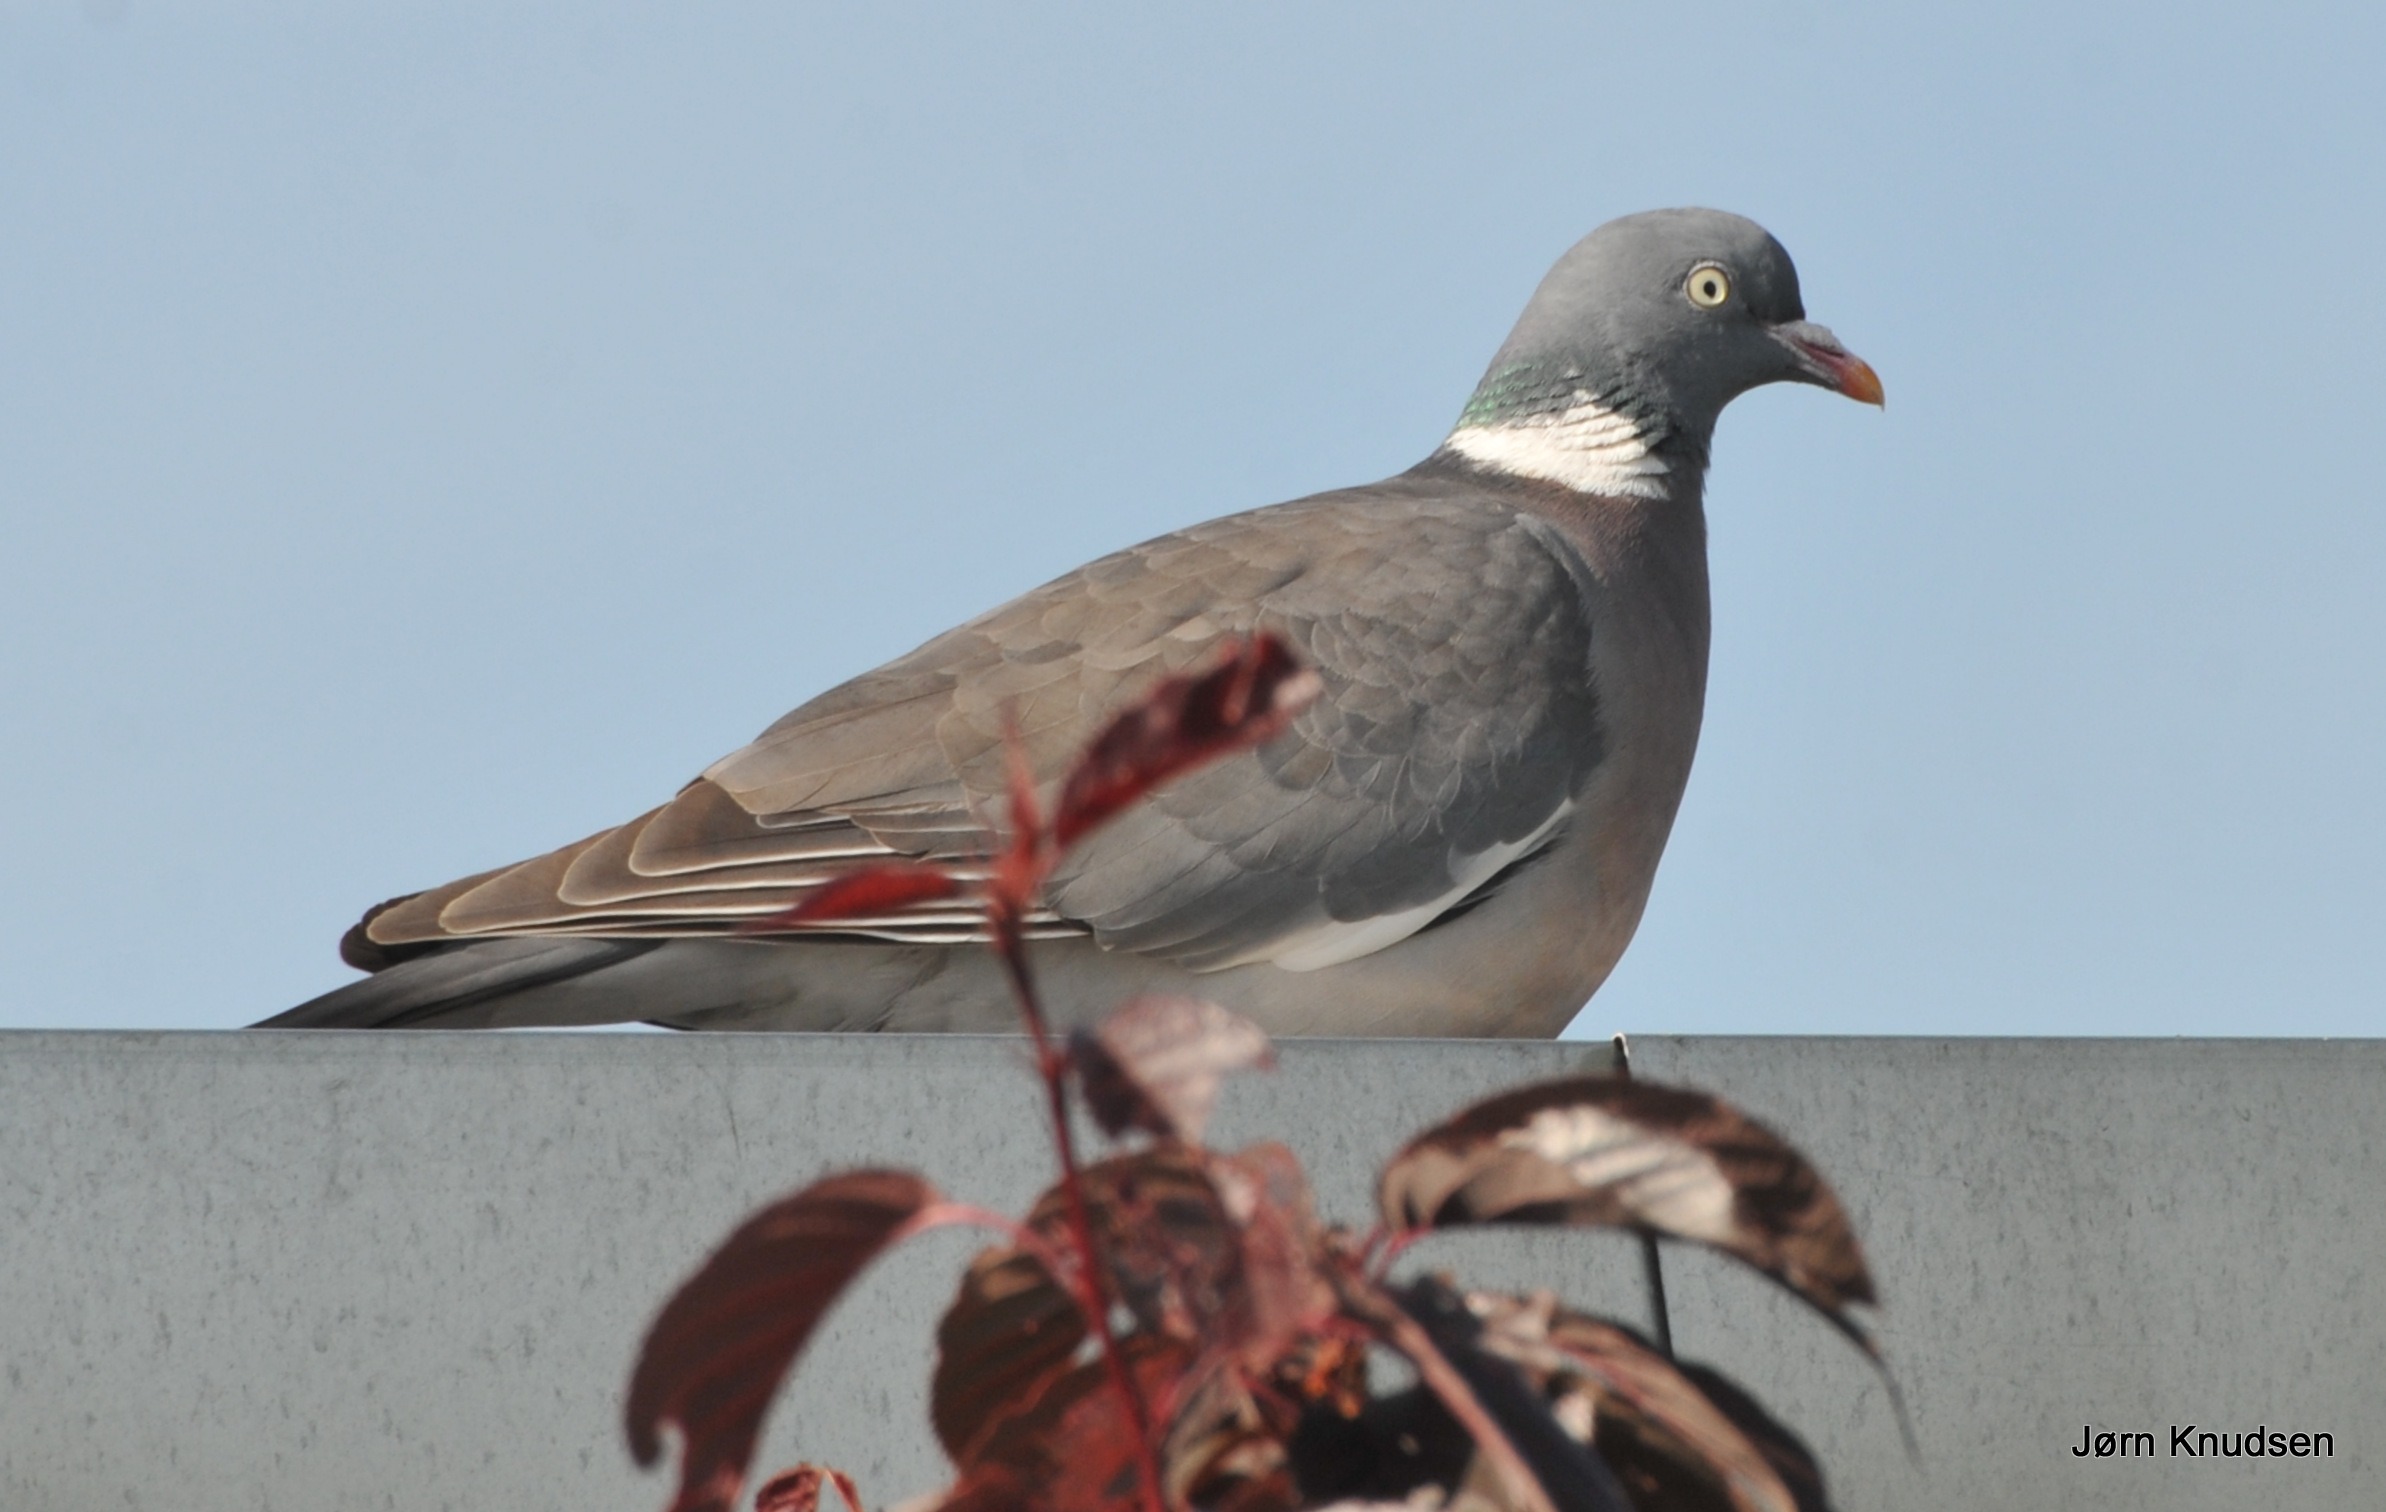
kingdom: Animalia
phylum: Chordata
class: Aves
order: Columbiformes
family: Columbidae
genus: Columba
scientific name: Columba palumbus
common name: Ringdue
